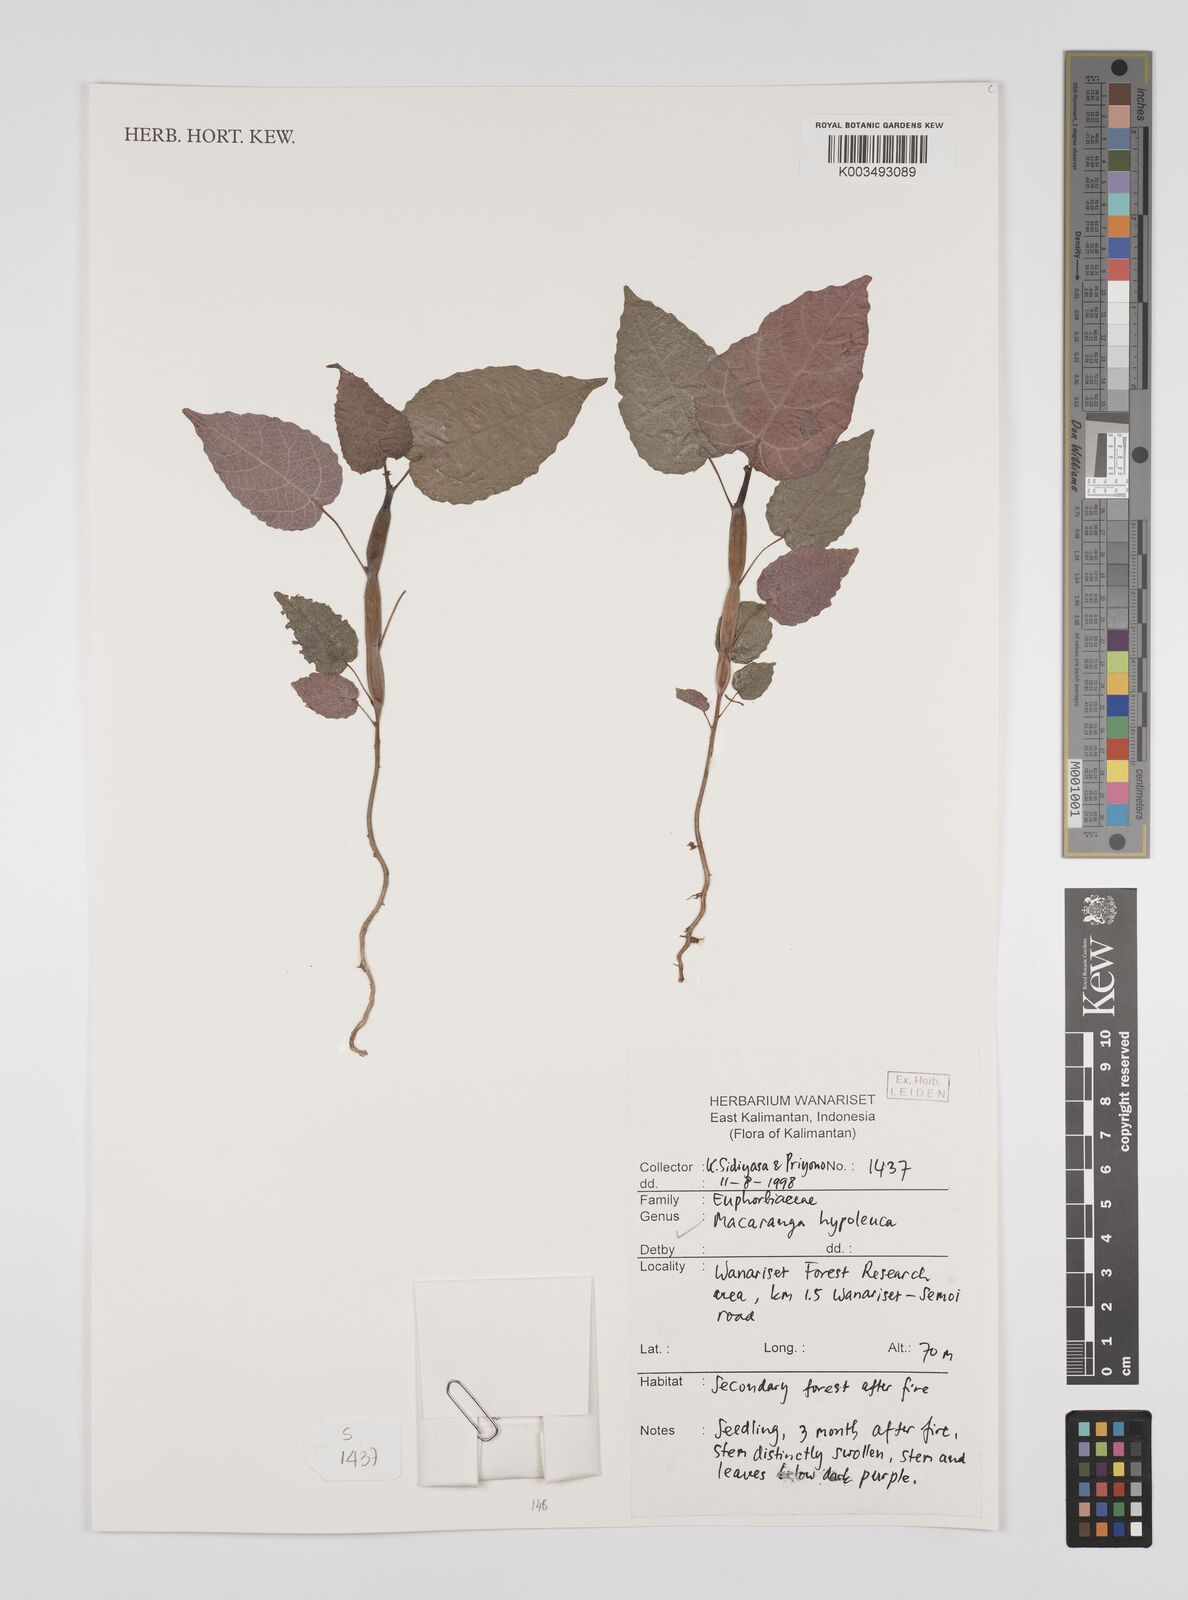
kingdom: Plantae
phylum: Tracheophyta
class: Magnoliopsida
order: Malpighiales
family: Euphorbiaceae
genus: Macaranga
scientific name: Macaranga hypoleuca
